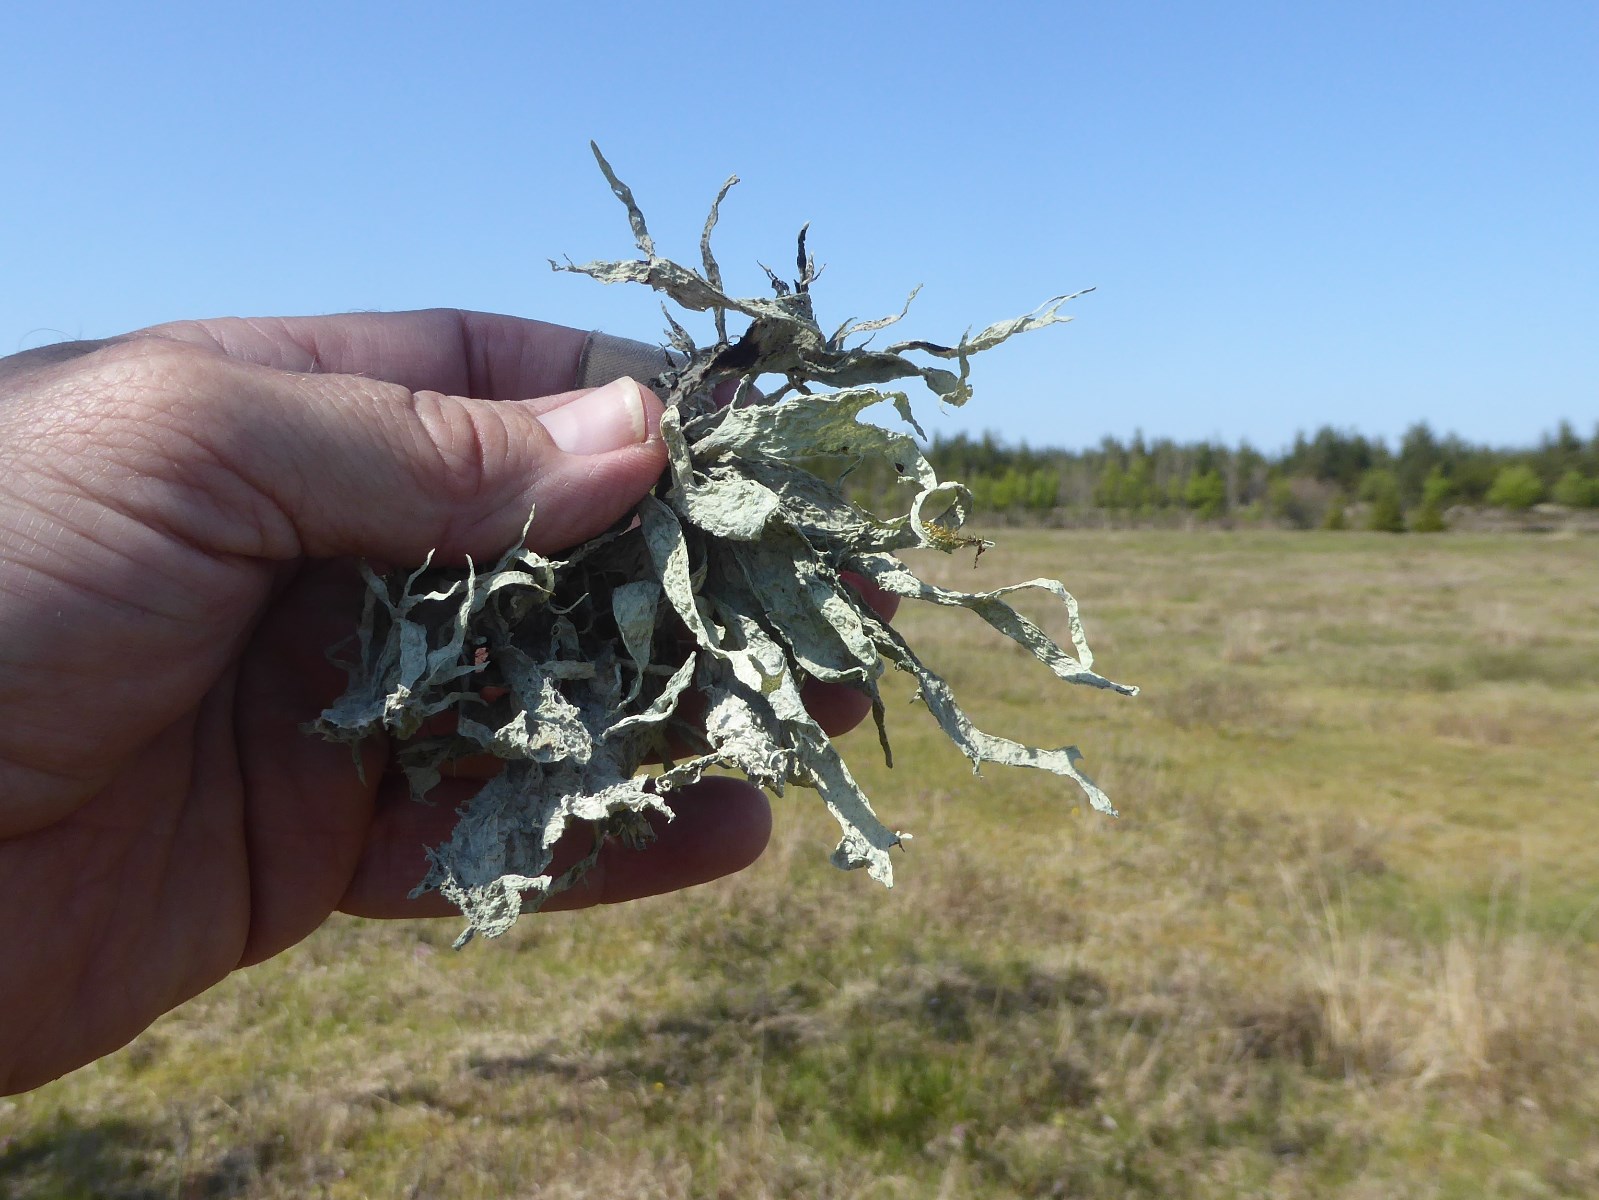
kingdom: Fungi
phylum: Ascomycota
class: Lecanoromycetes
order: Lecanorales
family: Ramalinaceae
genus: Ramalina
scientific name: Ramalina fraxinea
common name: stor grenlav
